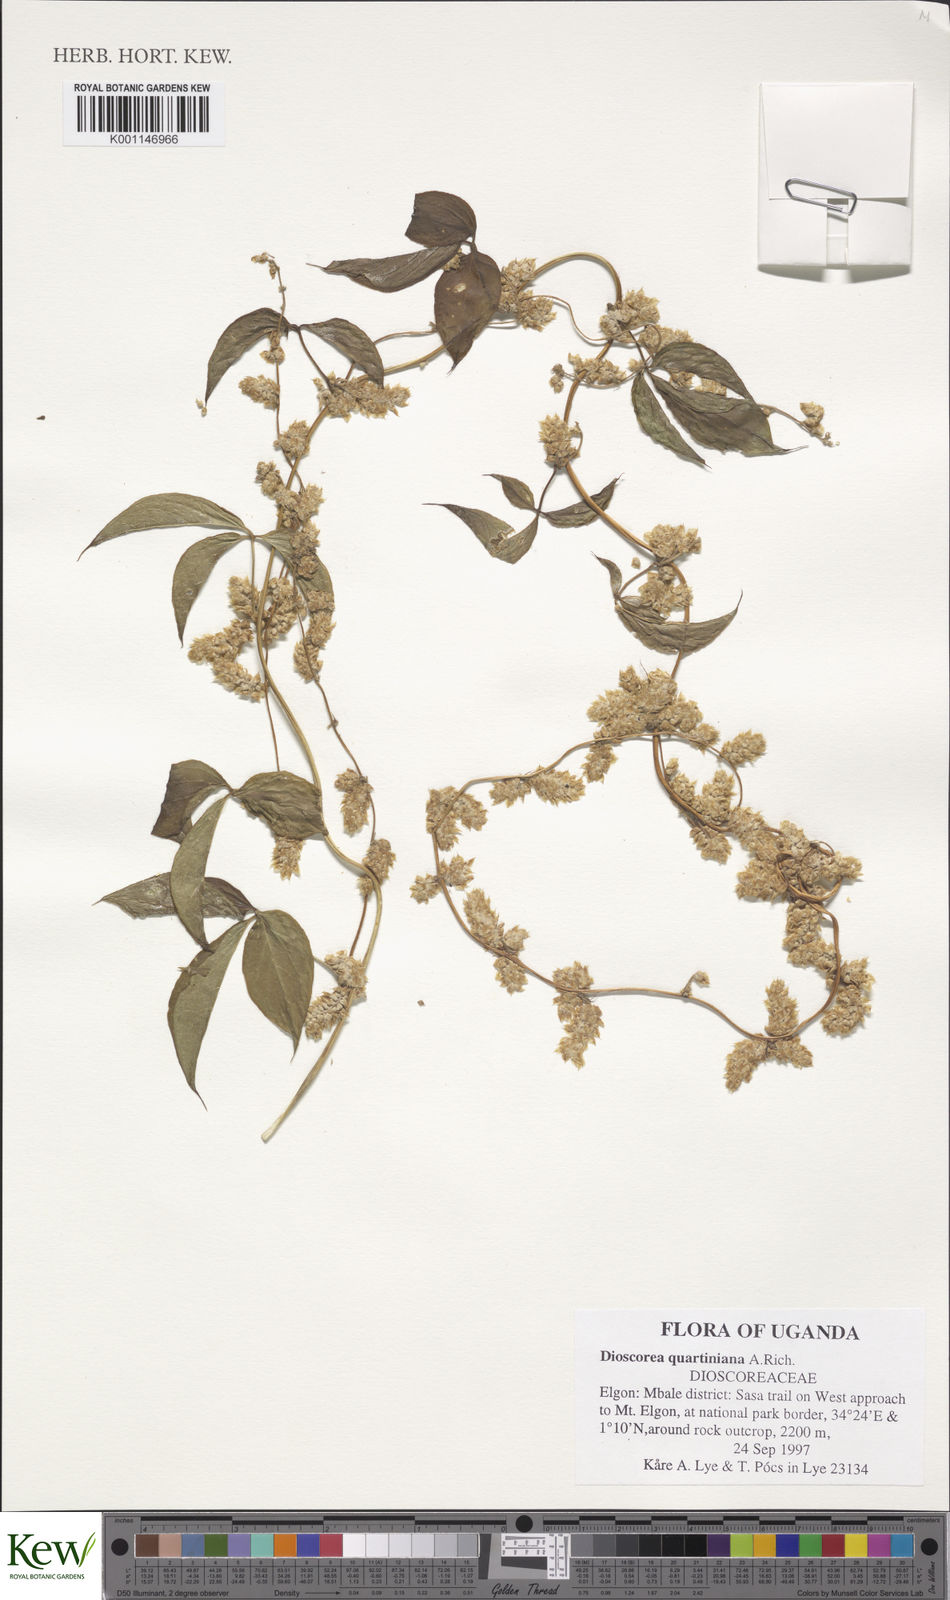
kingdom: Plantae
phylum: Tracheophyta
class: Liliopsida
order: Dioscoreales
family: Dioscoreaceae
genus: Dioscorea
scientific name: Dioscorea quartiniana
